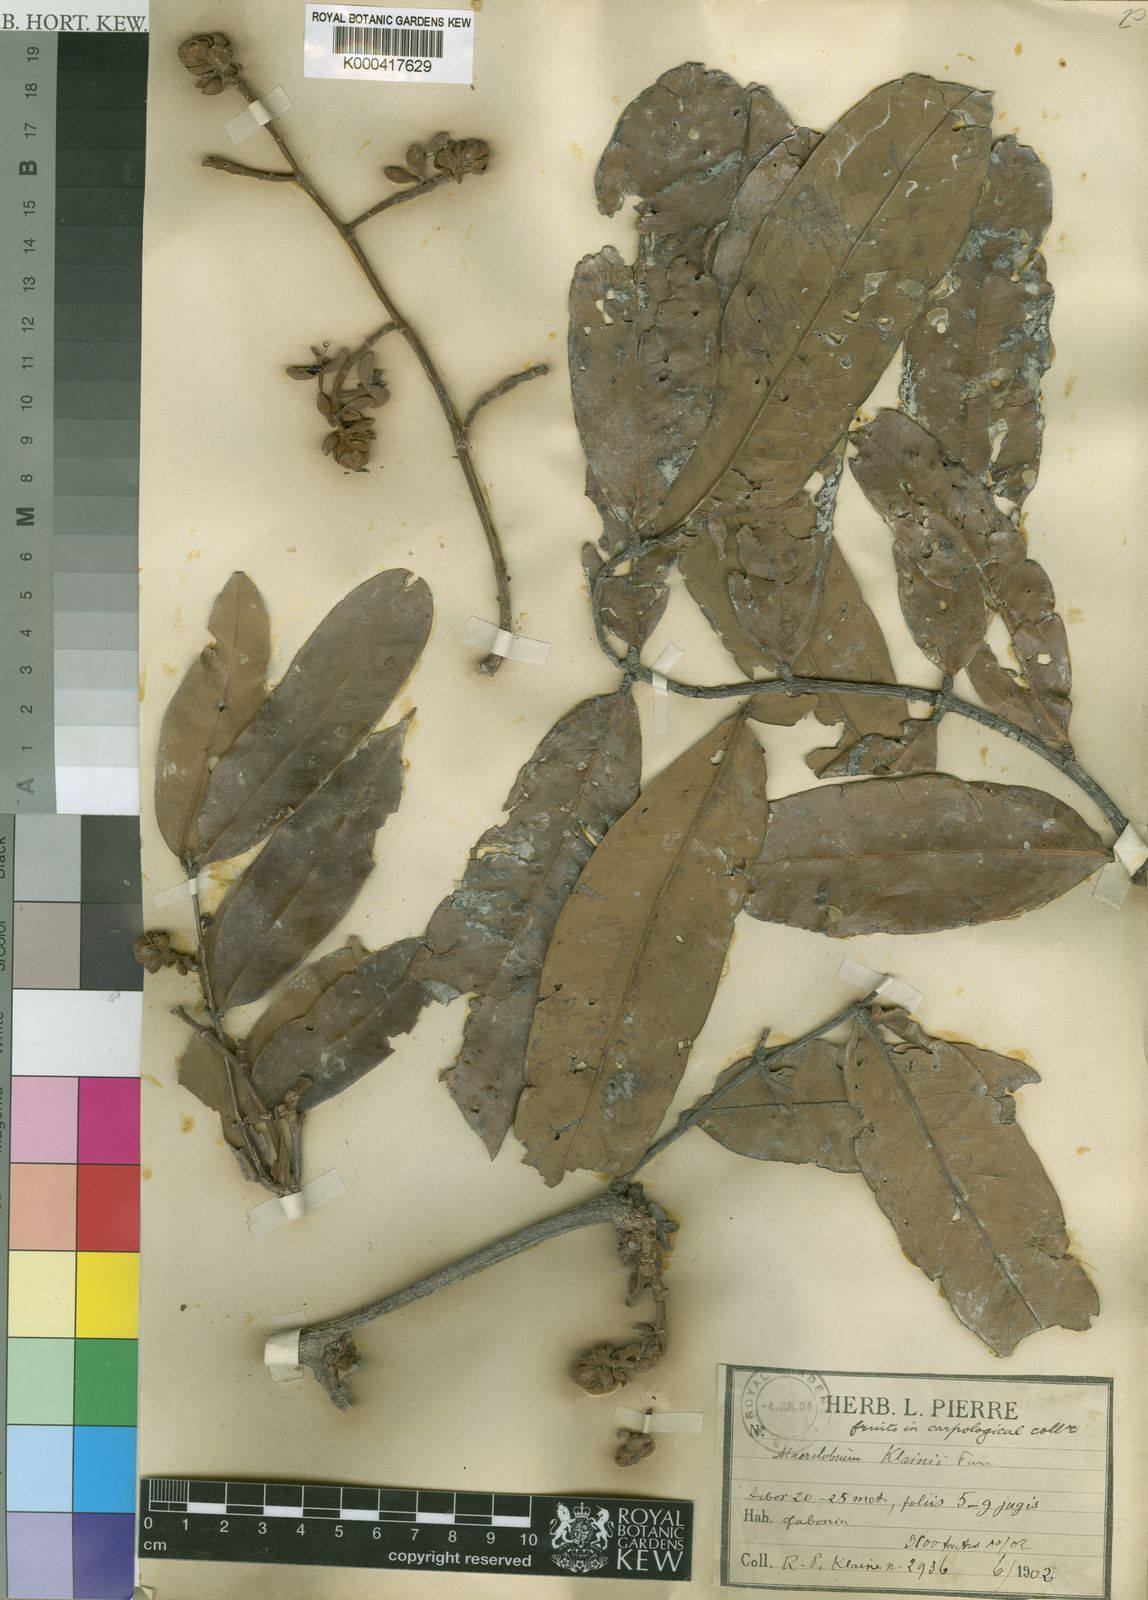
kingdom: Plantae
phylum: Tracheophyta
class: Magnoliopsida
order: Fabales
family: Fabaceae
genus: Gilbertiodendron
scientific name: Gilbertiodendron
